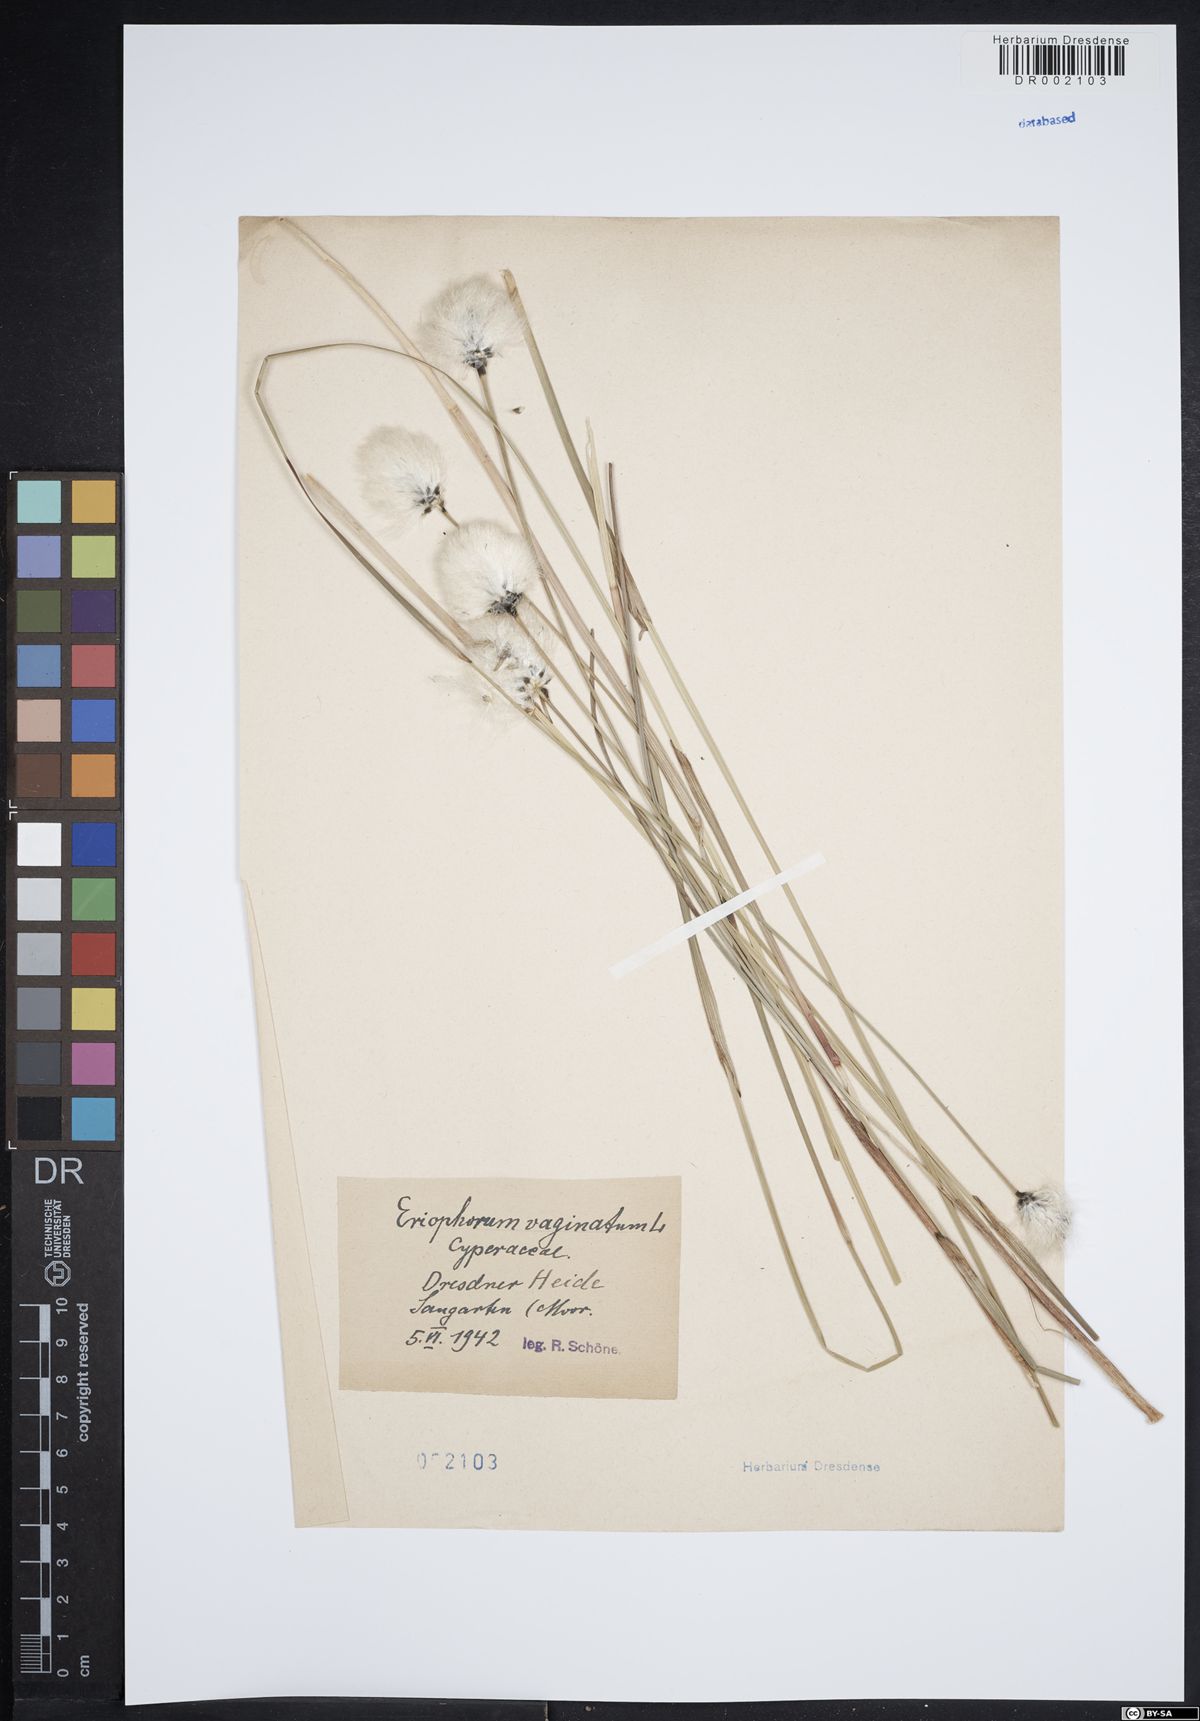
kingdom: Plantae
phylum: Tracheophyta
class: Liliopsida
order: Poales
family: Cyperaceae
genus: Eriophorum
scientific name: Eriophorum vaginatum
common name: Hare's-tail cottongrass
